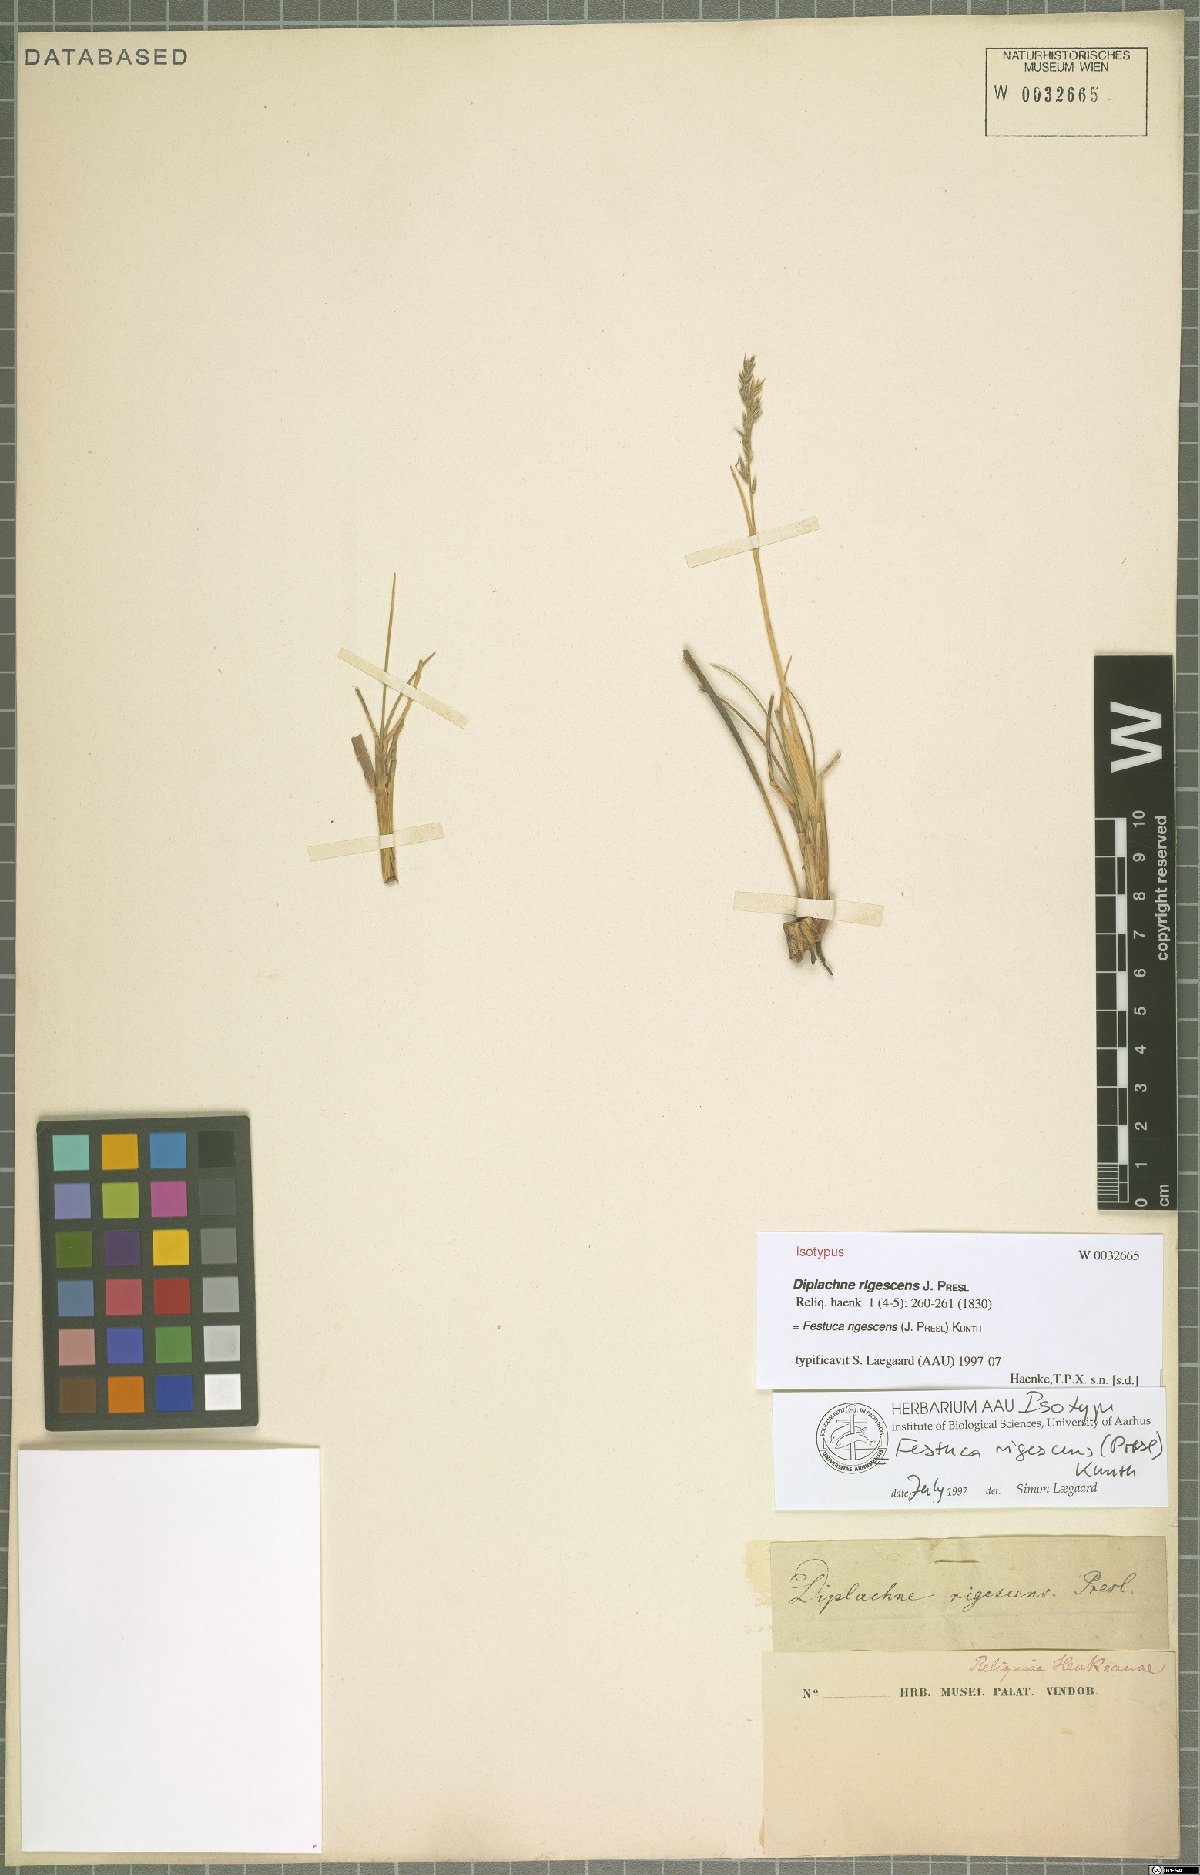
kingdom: Plantae
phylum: Tracheophyta
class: Liliopsida
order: Poales
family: Poaceae
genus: Festuca
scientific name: Festuca rigescens
